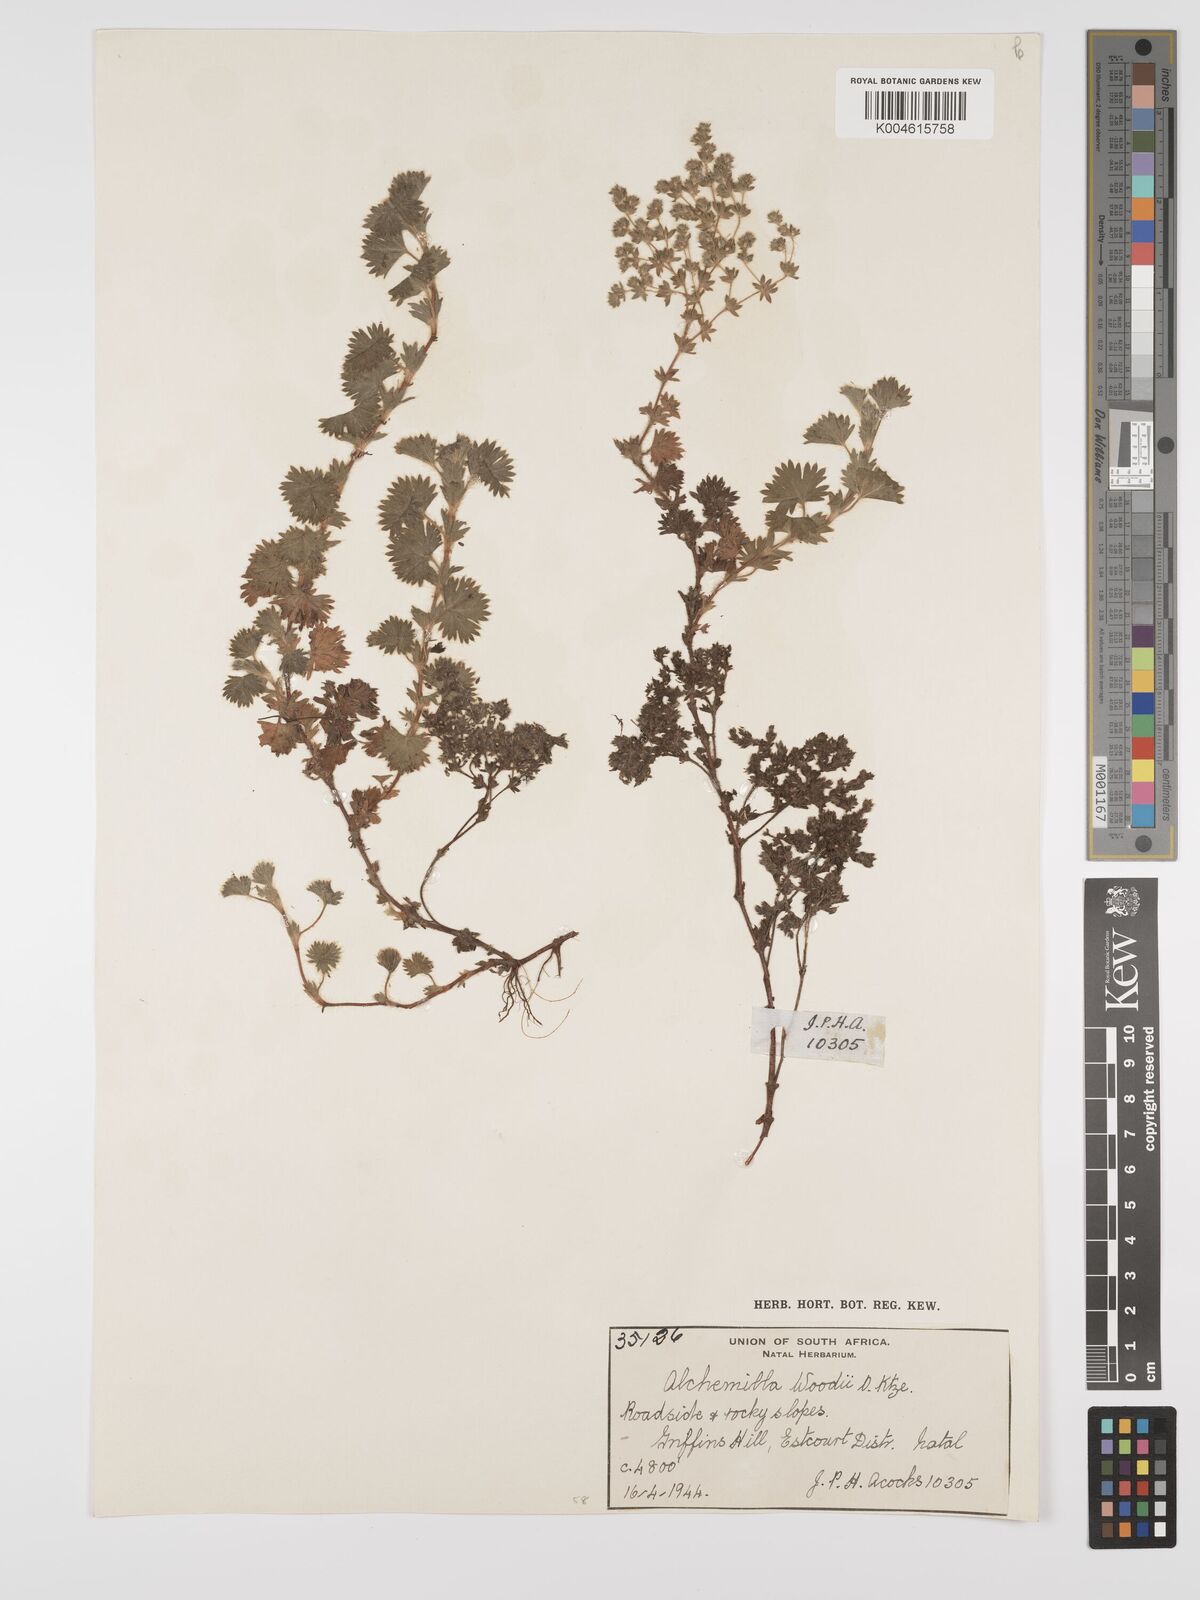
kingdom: Plantae
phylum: Tracheophyta
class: Magnoliopsida
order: Rosales
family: Rosaceae
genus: Alchemilla
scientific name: Alchemilla woodii
